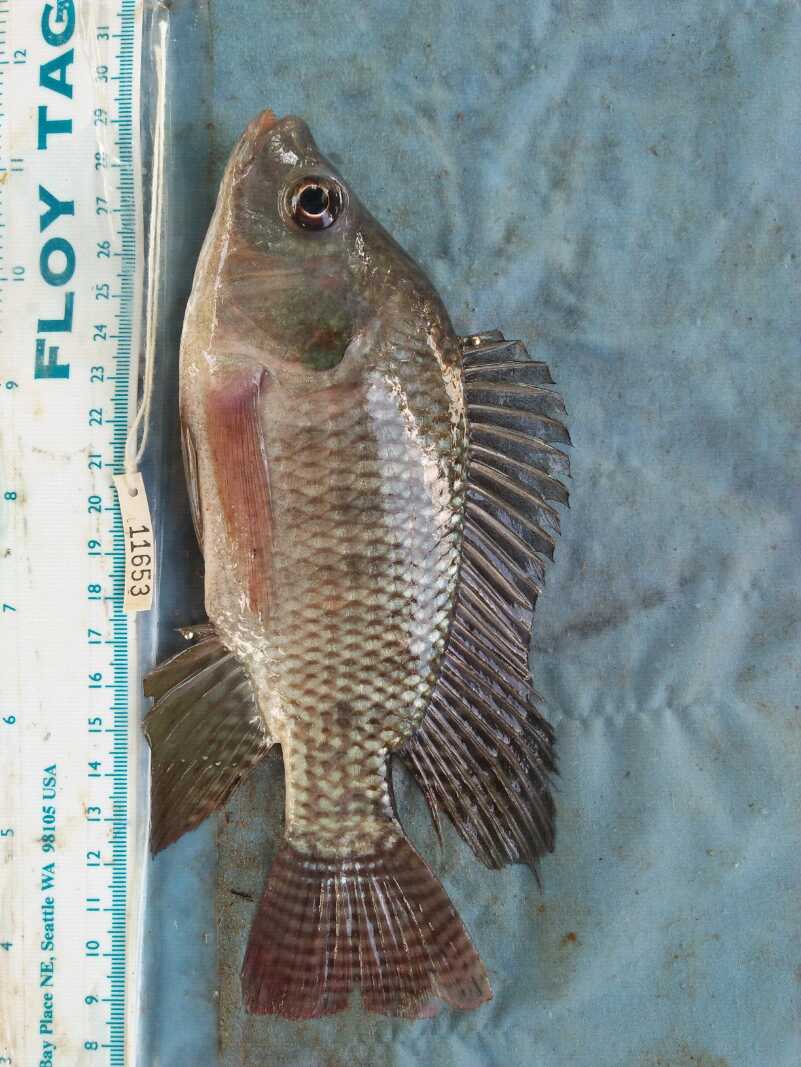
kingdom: Animalia
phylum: Chordata
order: Perciformes
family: Cichlidae
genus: Oreochromis
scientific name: Oreochromis niloticus
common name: Nile tilapia
